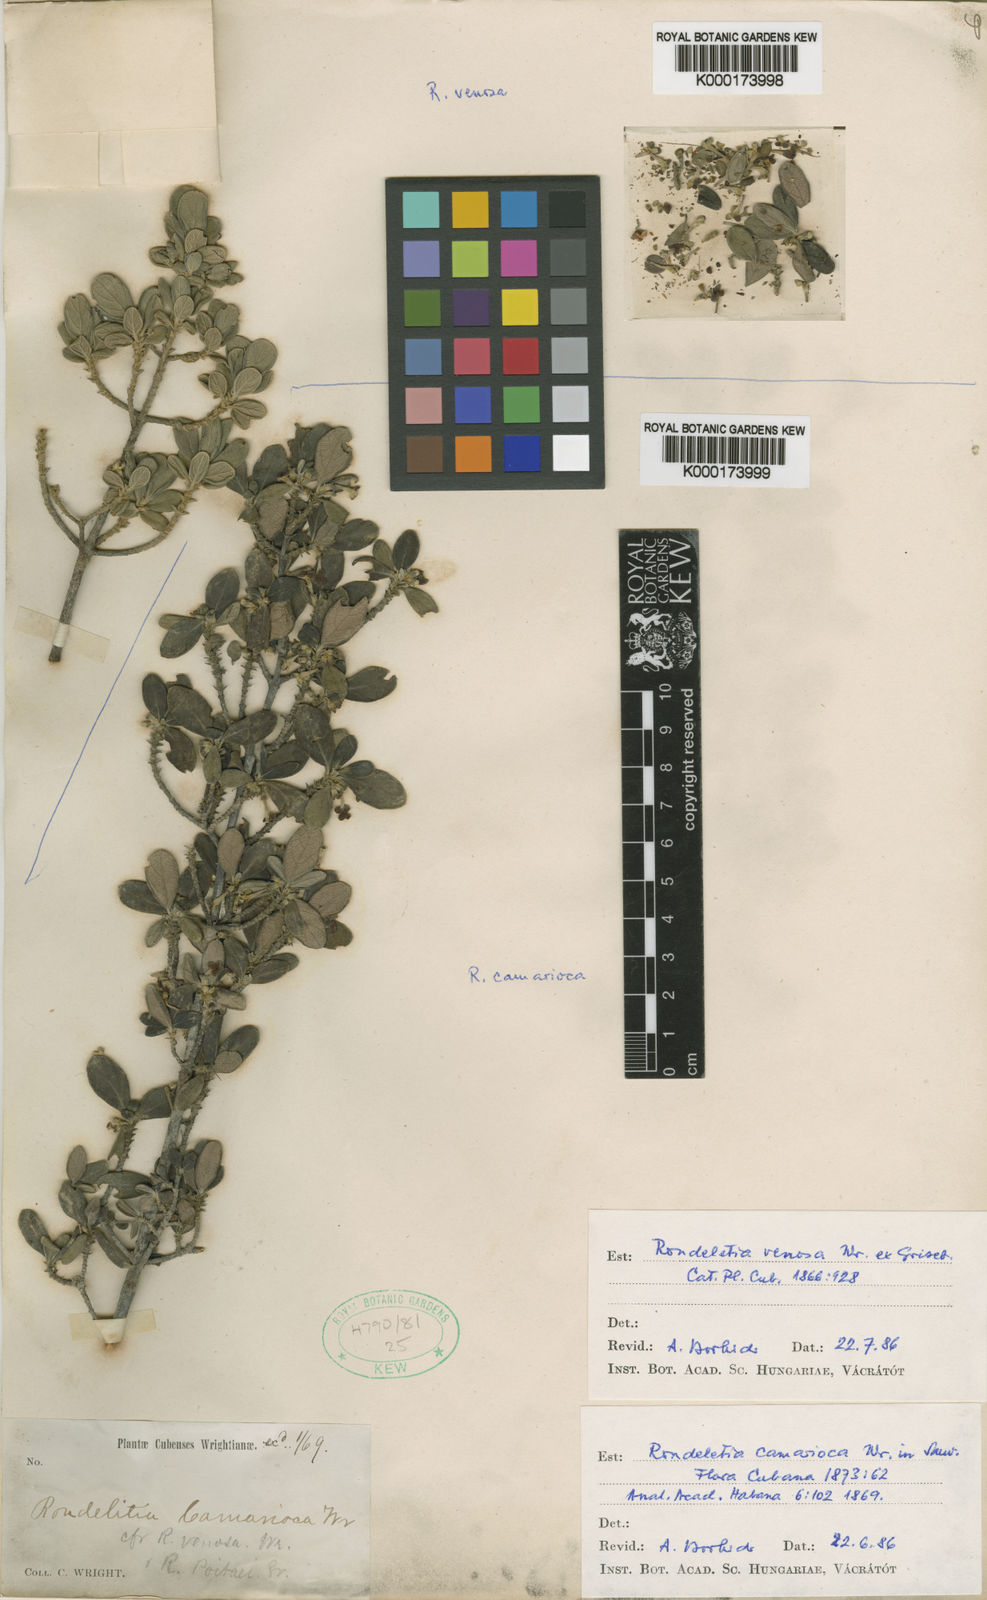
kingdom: Plantae
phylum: Tracheophyta
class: Magnoliopsida
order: Gentianales
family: Rubiaceae
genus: Rondeletia
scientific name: Rondeletia camarioca
